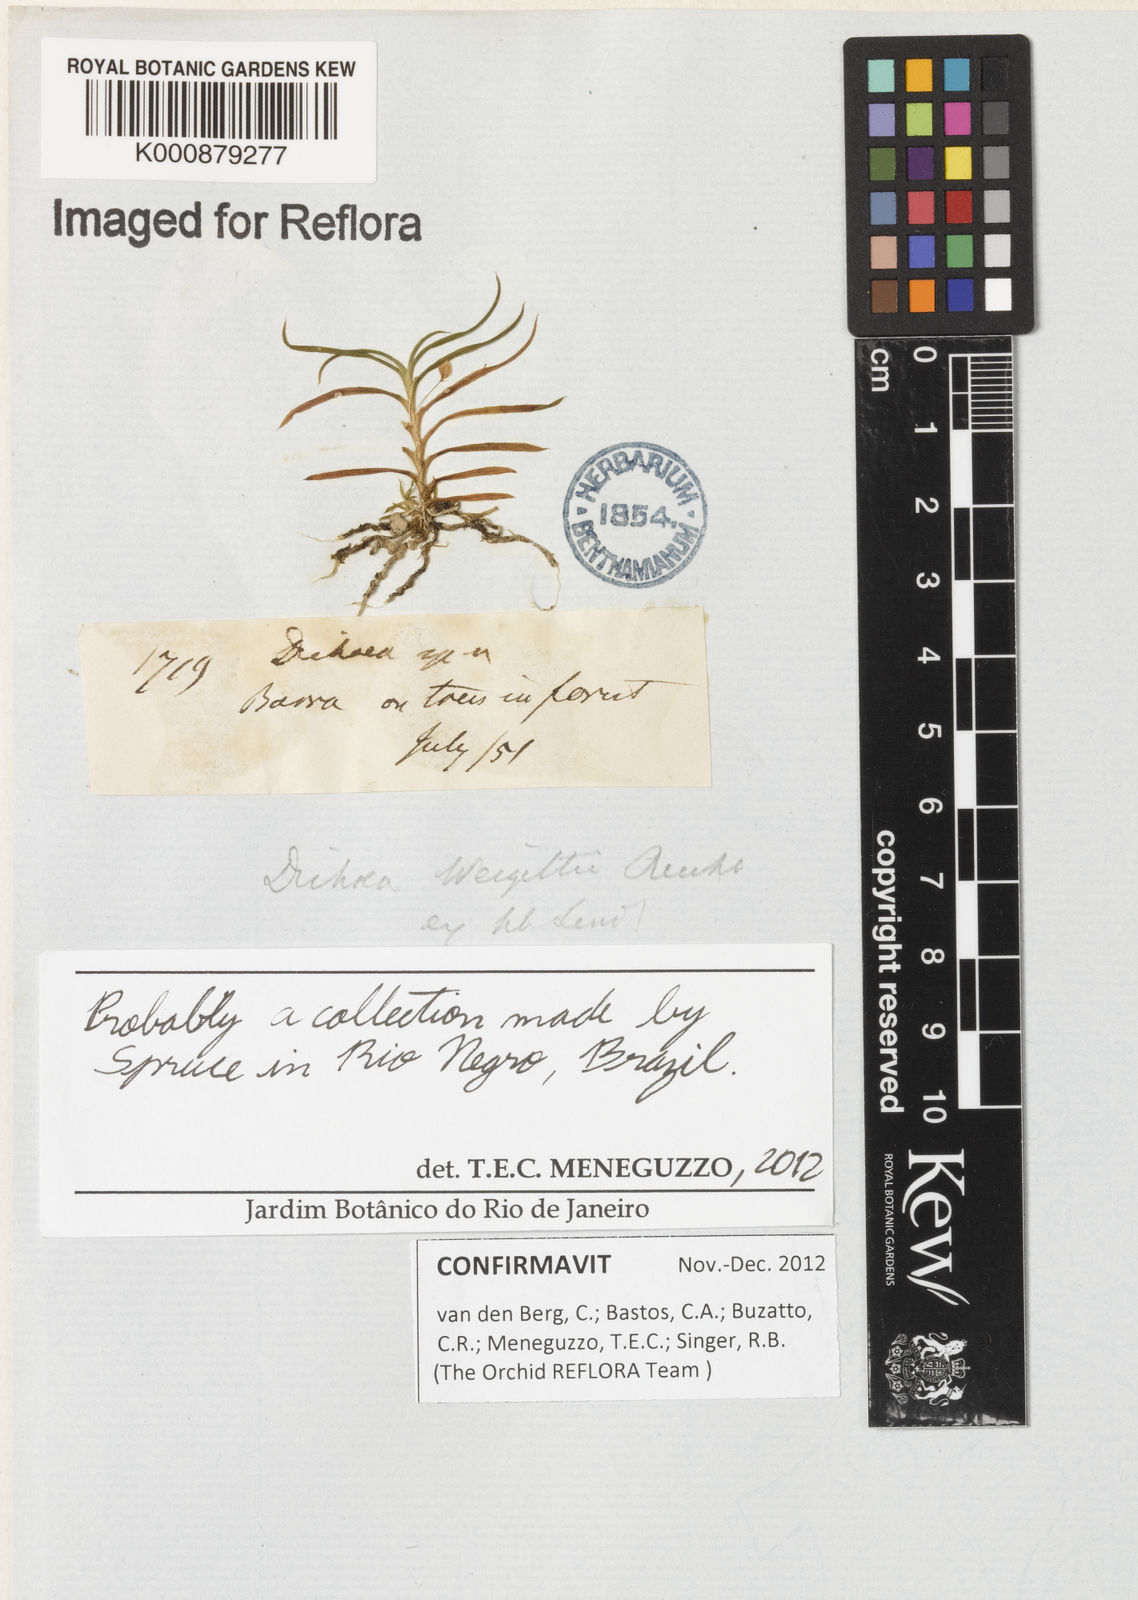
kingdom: Plantae
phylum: Tracheophyta
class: Liliopsida
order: Asparagales
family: Orchidaceae
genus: Dichaea
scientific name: Dichaea weigeltii
